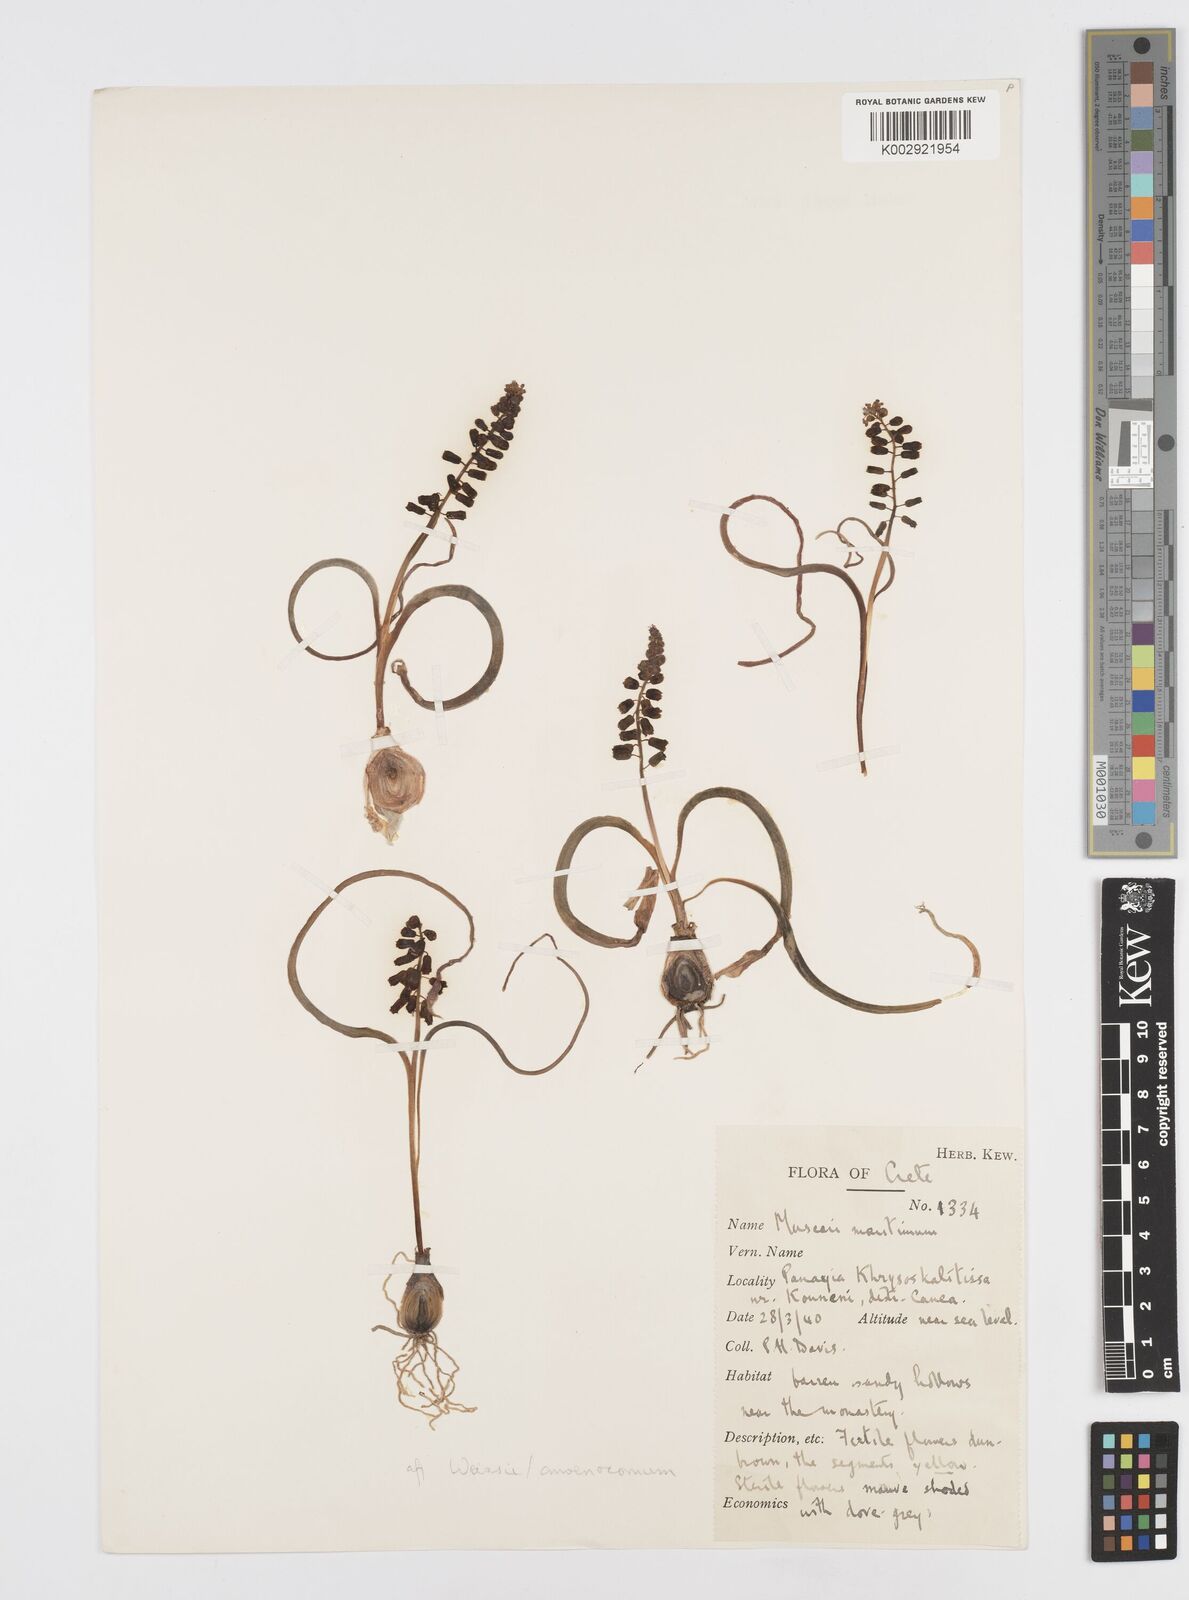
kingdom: Animalia
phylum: Mollusca
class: Cephalopoda
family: Neocomitidae
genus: Leopoldia
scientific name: Leopoldia
